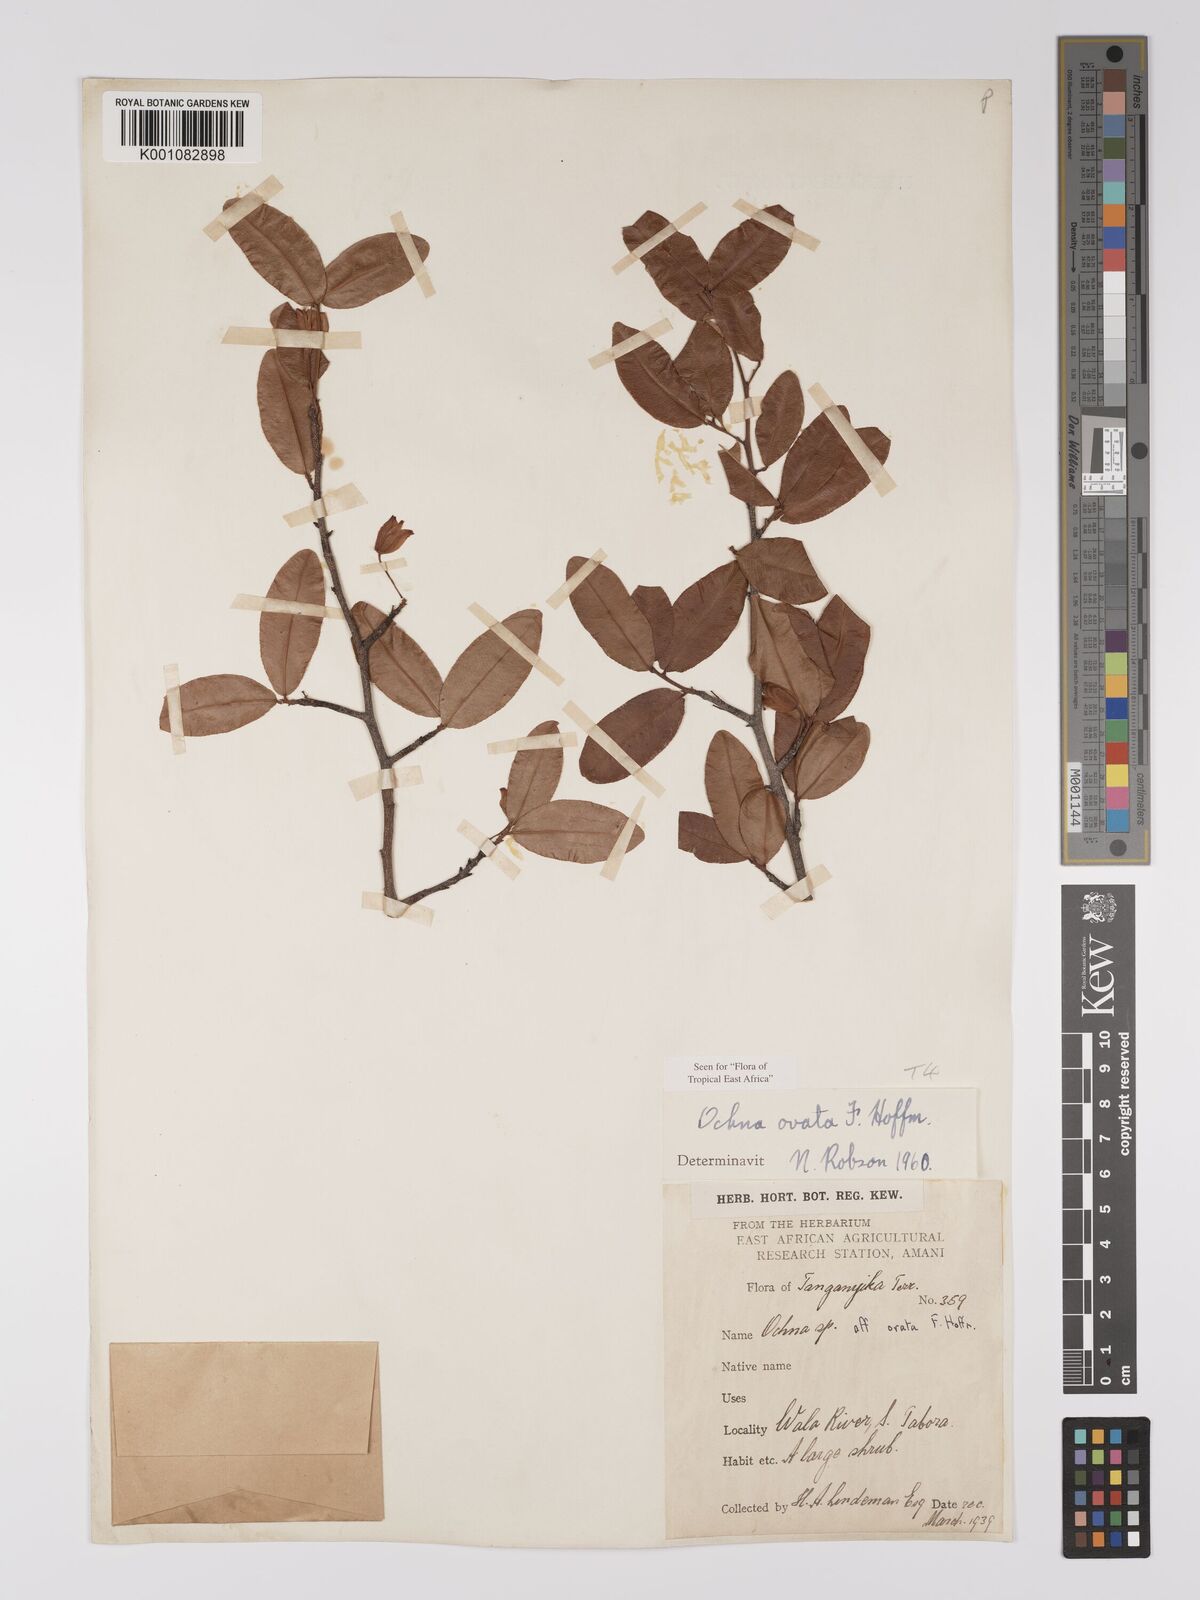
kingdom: Plantae
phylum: Tracheophyta
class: Magnoliopsida
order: Malpighiales
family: Ochnaceae
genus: Ochna
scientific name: Ochna ovata
